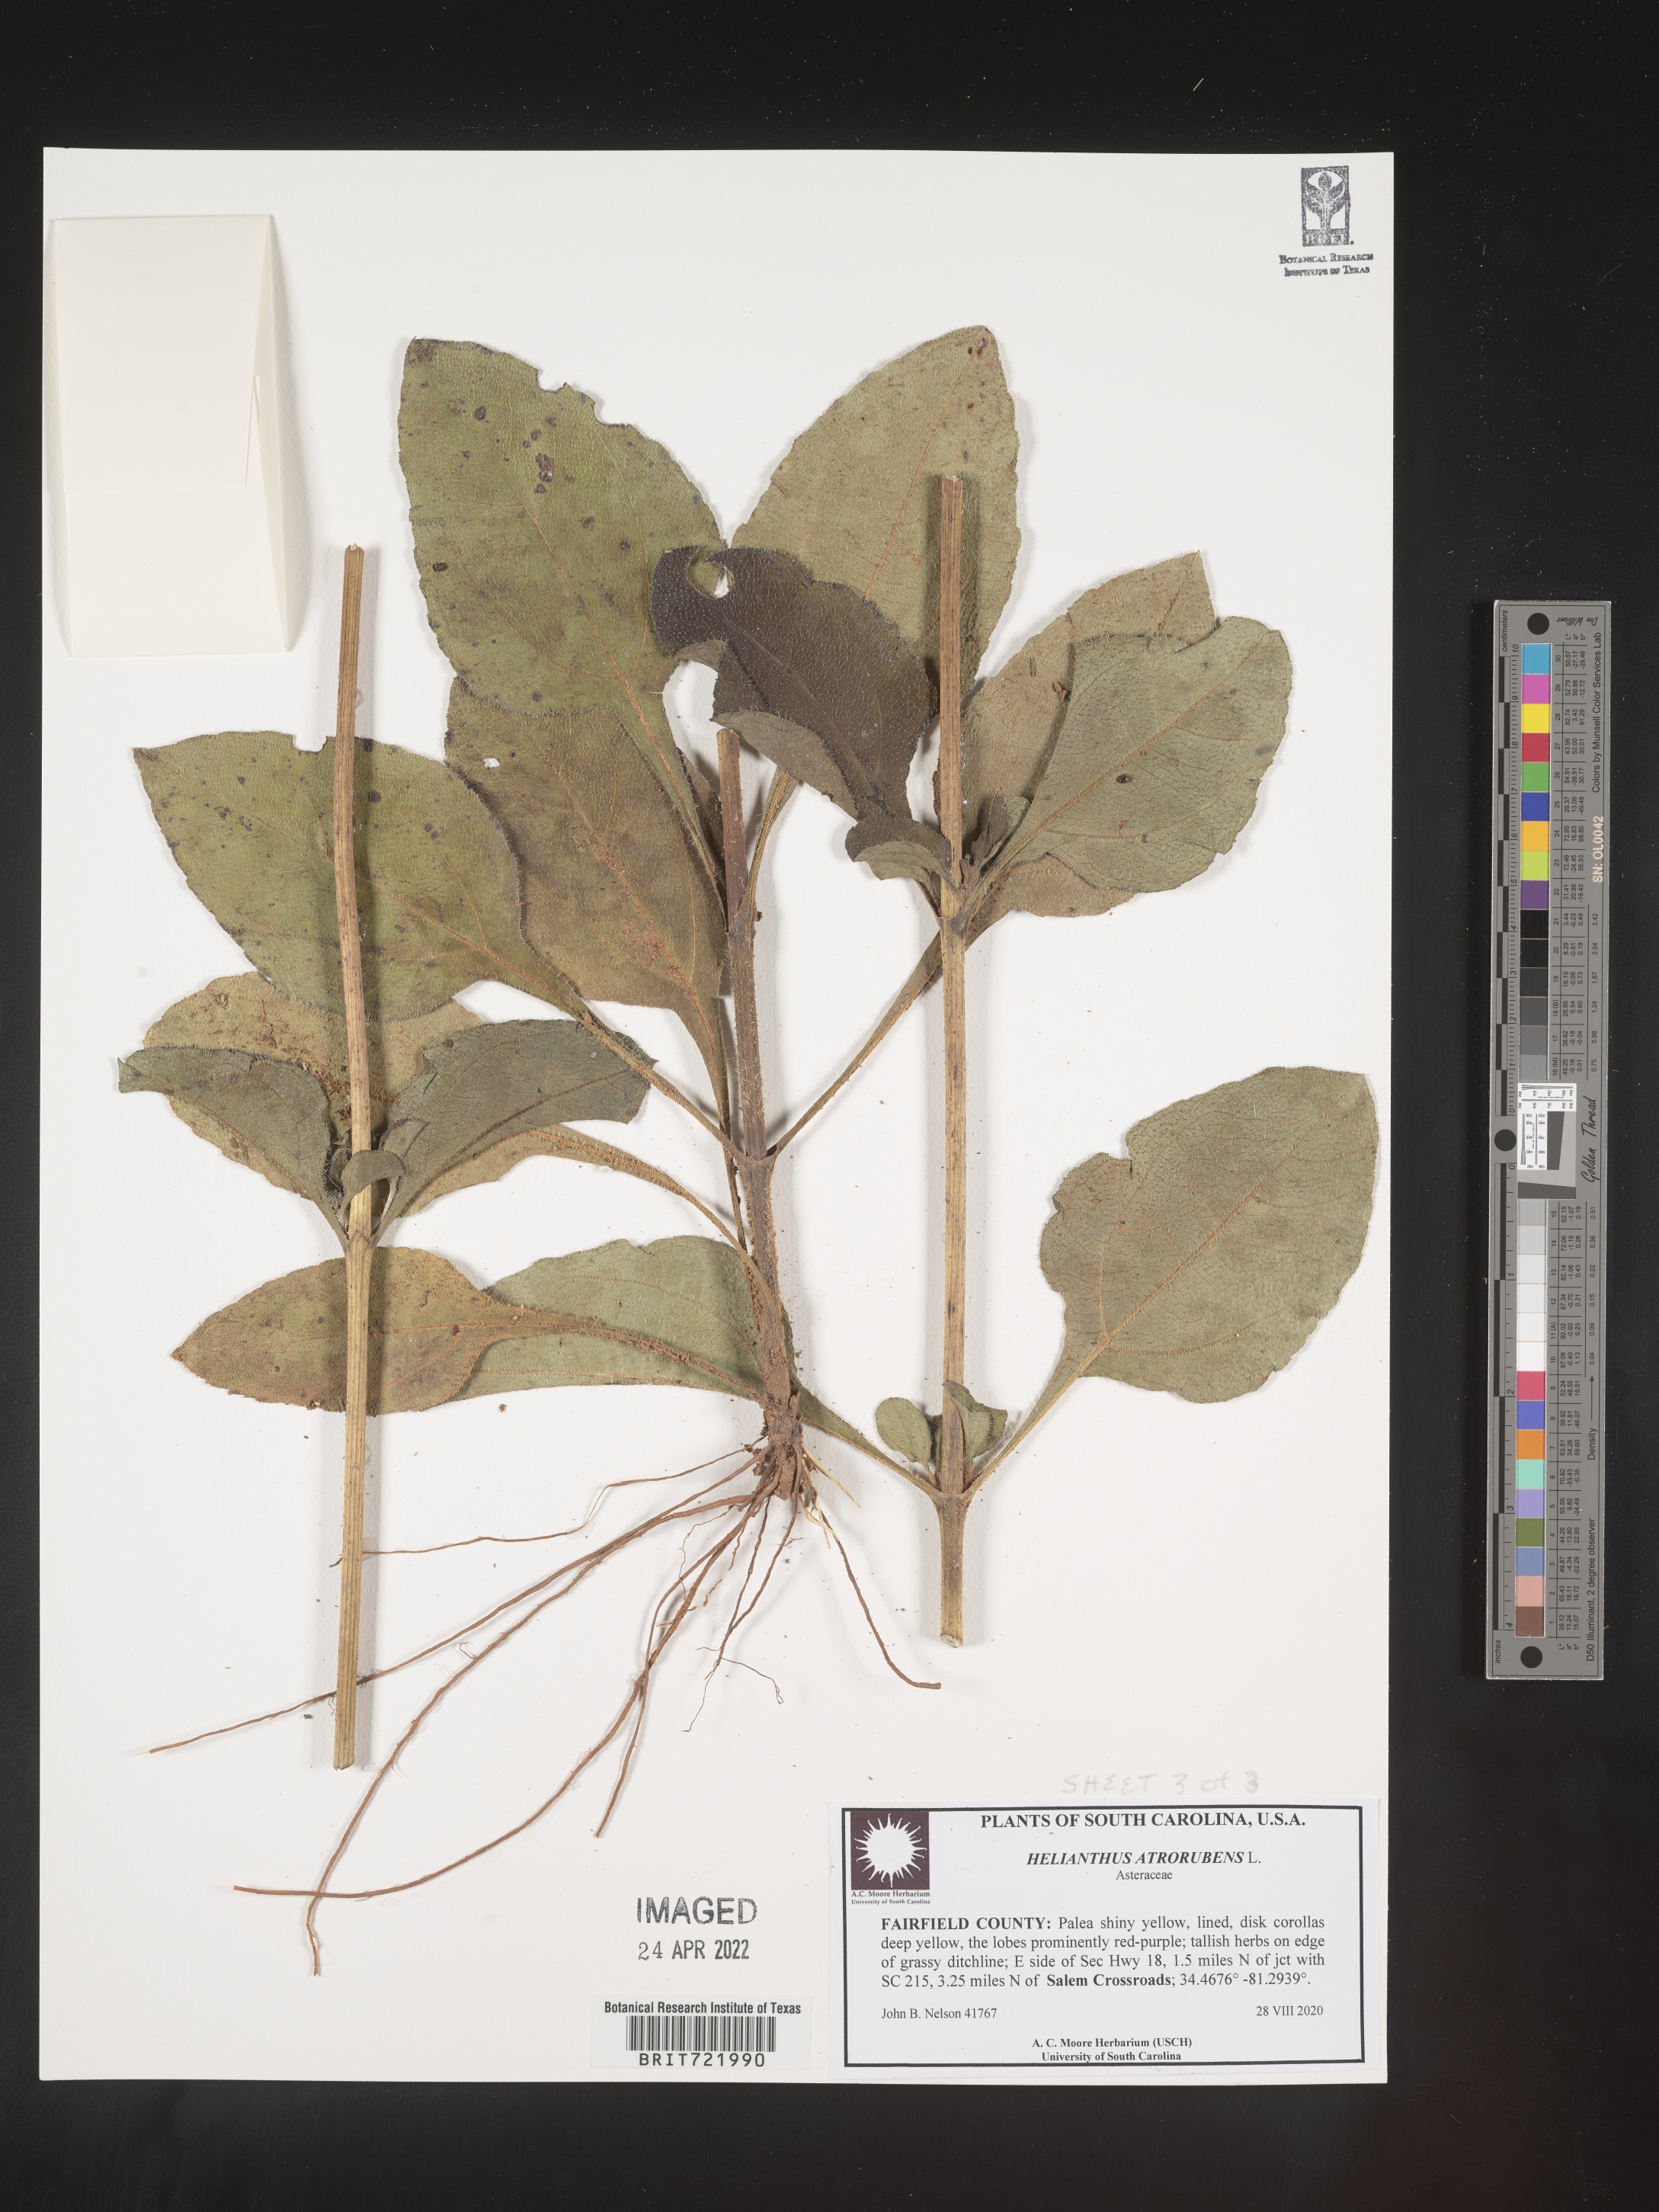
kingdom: Plantae
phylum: Tracheophyta
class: Magnoliopsida
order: Asterales
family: Asteraceae
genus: Helianthus
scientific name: Helianthus atrorubens
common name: Dark-eyed sunflower
